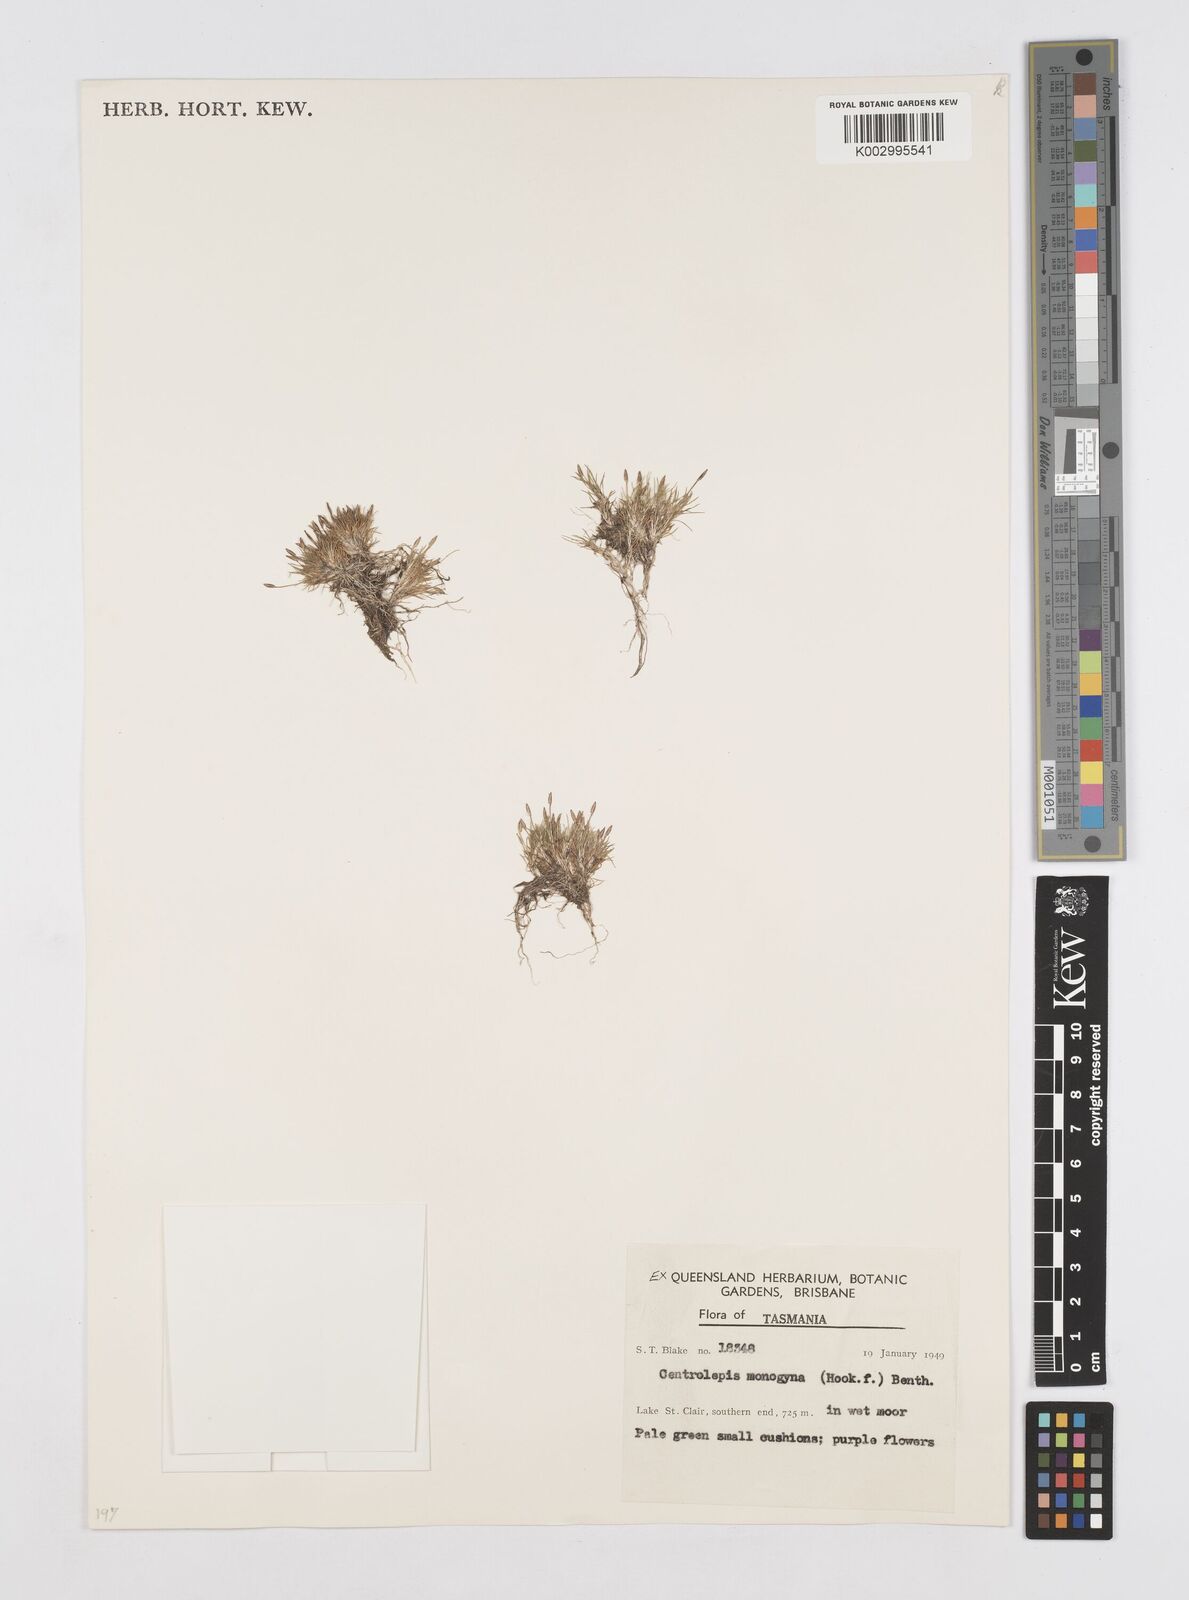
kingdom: Plantae
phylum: Tracheophyta
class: Liliopsida
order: Poales
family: Restionaceae
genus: Centrolepis
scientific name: Centrolepis monogyna
